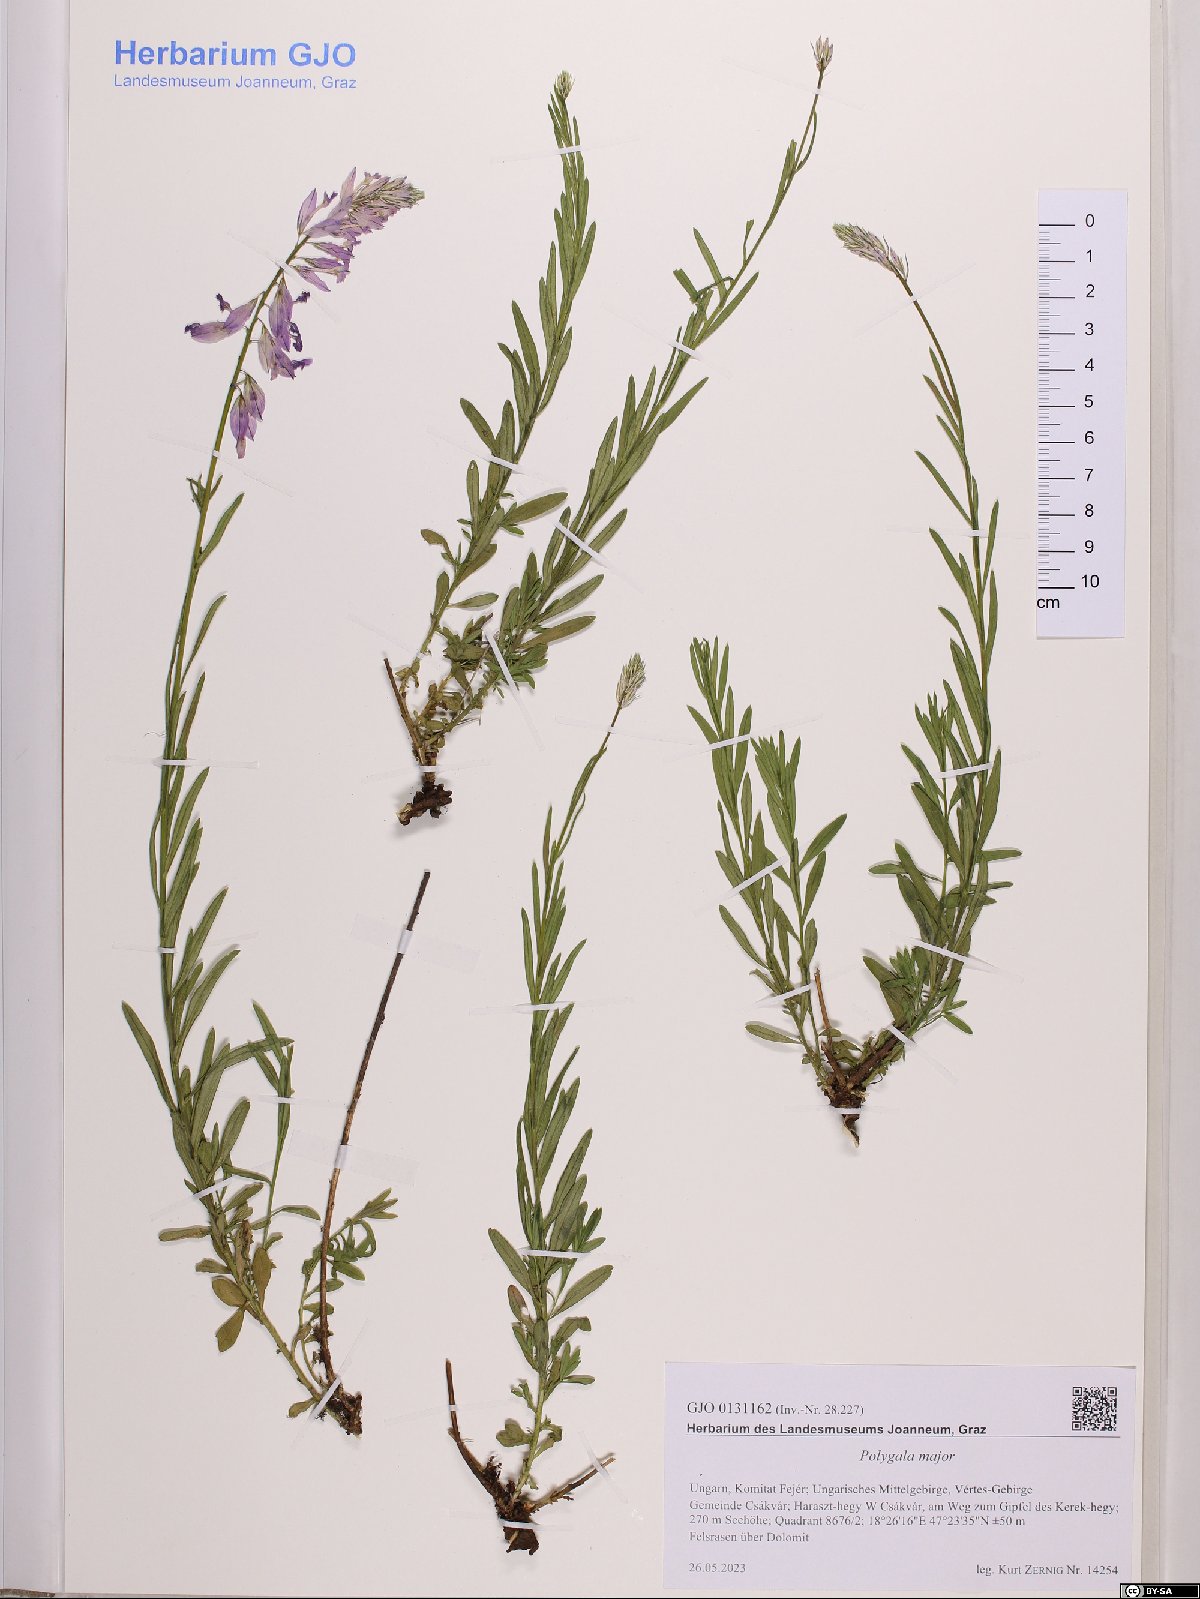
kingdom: Plantae
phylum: Tracheophyta
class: Magnoliopsida
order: Fabales
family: Polygalaceae
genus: Polygala
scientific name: Polygala major
